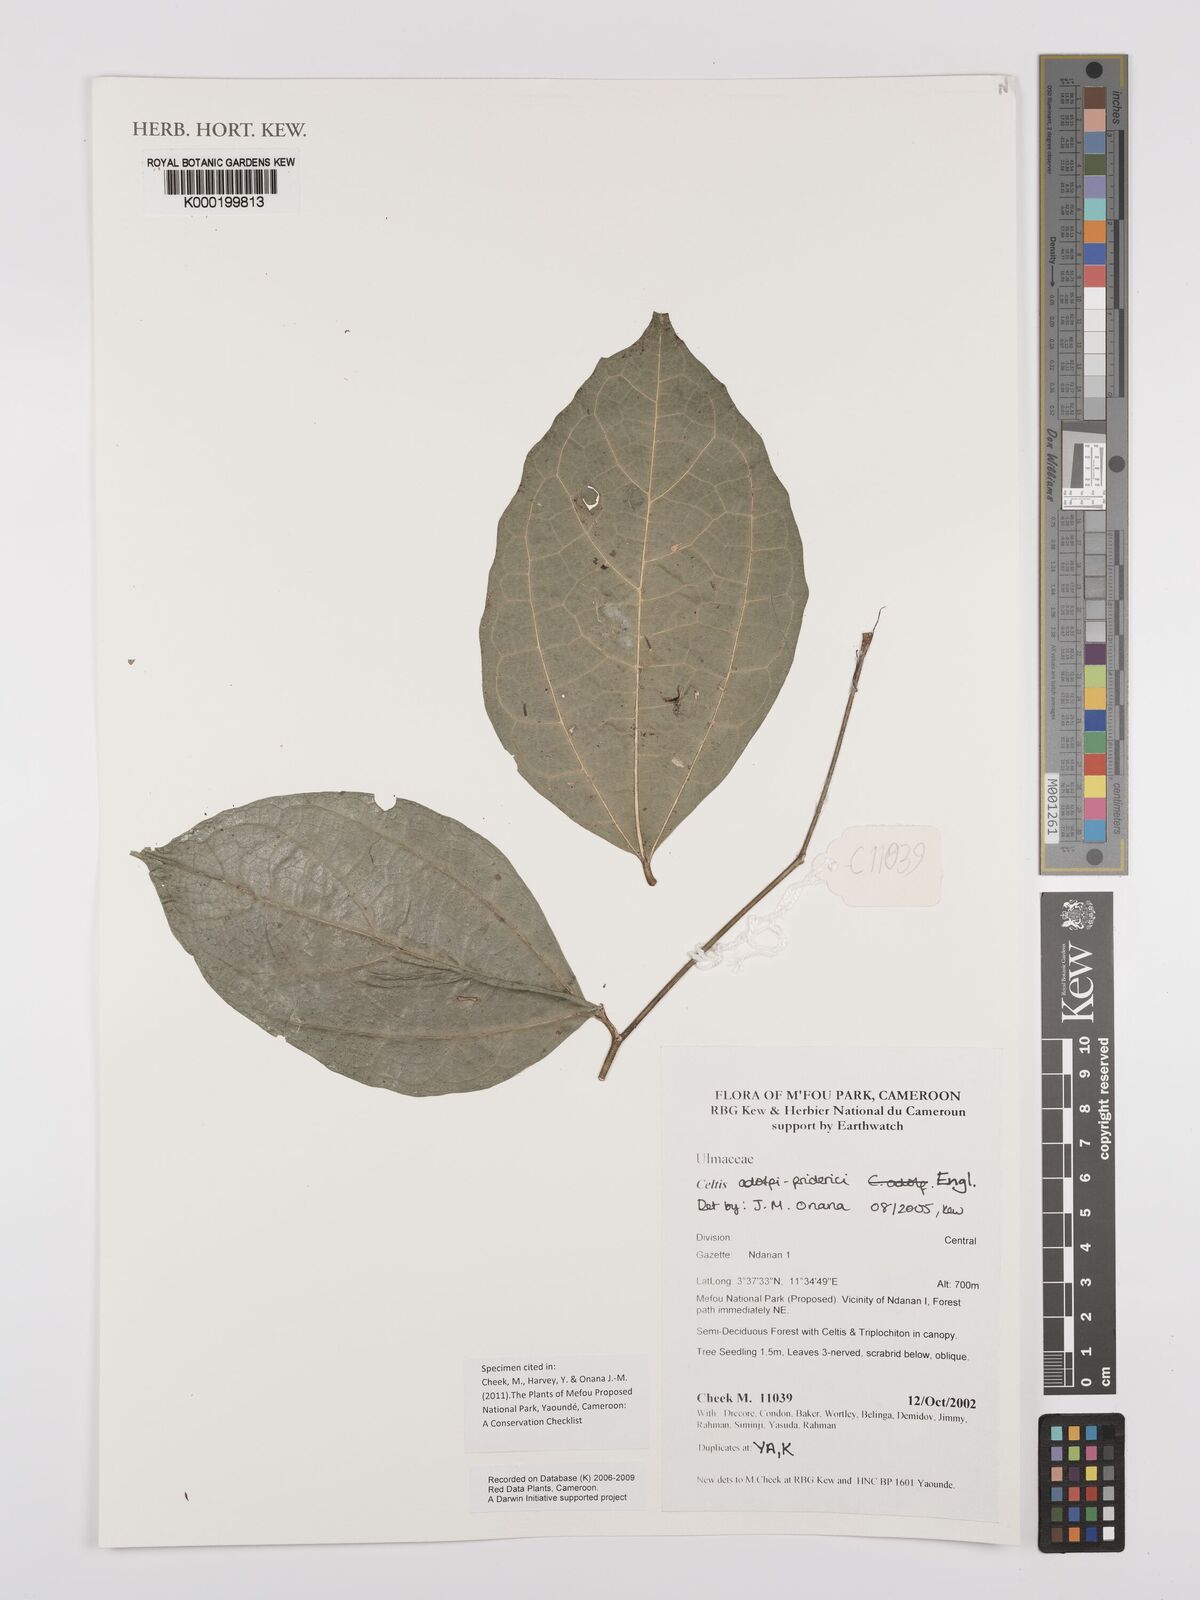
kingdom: Plantae
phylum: Tracheophyta
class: Magnoliopsida
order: Rosales
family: Cannabaceae
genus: Celtis
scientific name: Celtis adolfi-friderici
